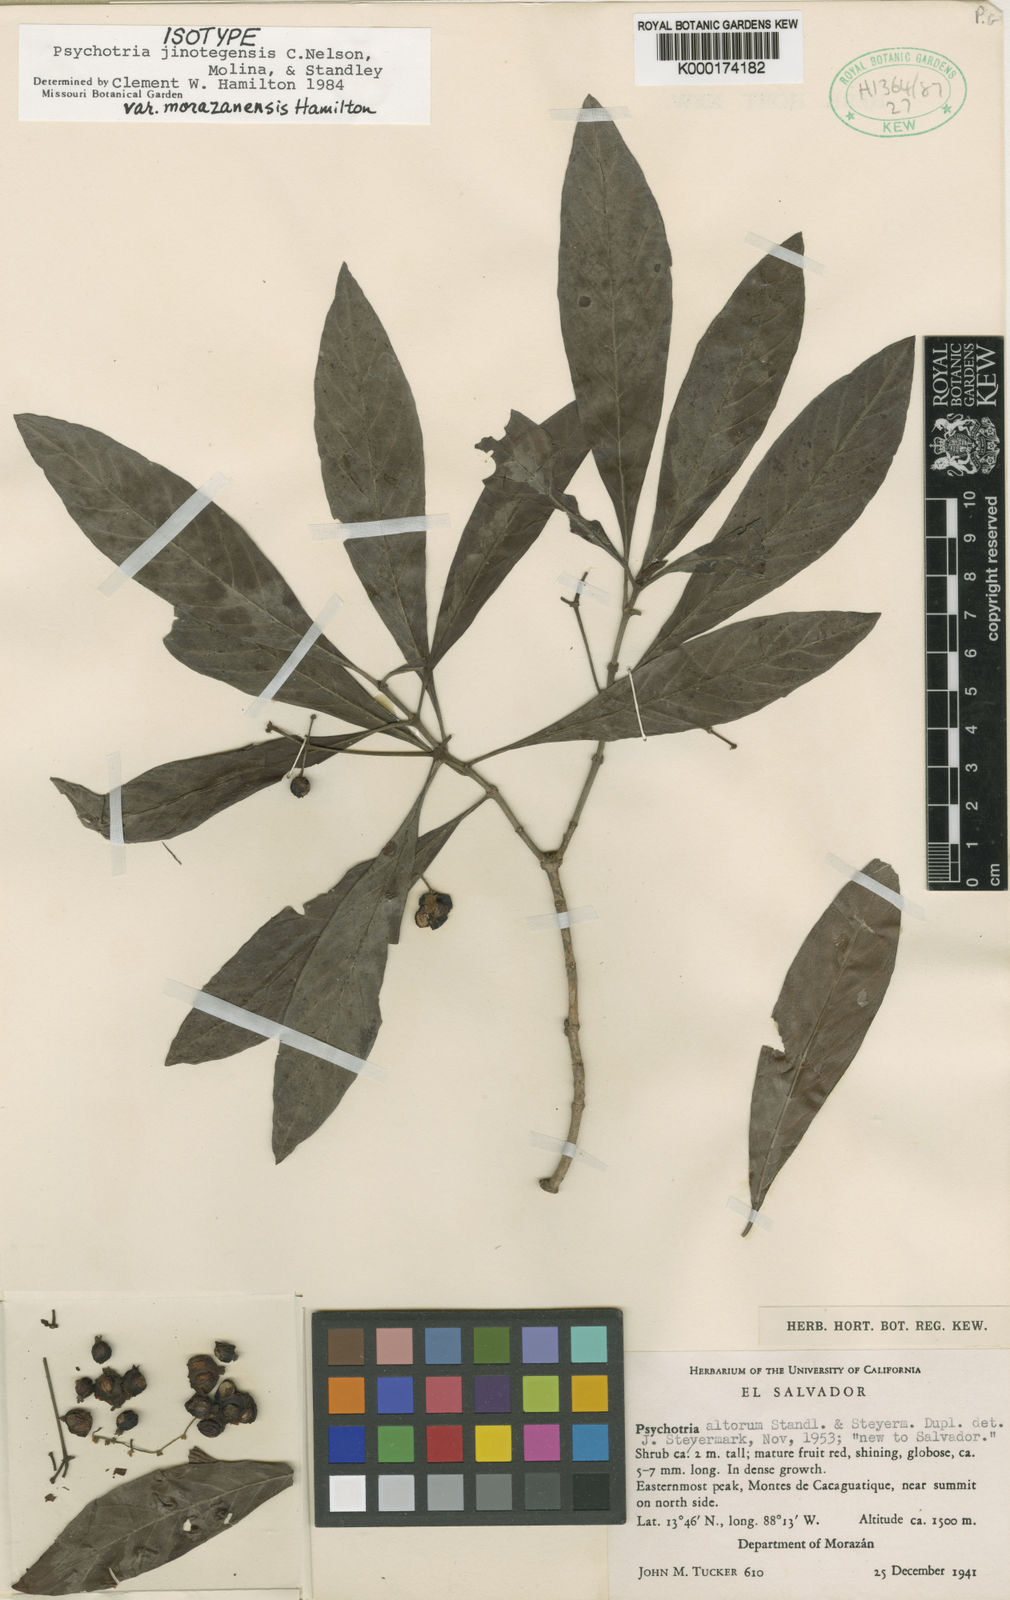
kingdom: Plantae
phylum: Tracheophyta
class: Magnoliopsida
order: Gentianales
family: Rubiaceae
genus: Psychotria
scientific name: Psychotria jinotegensis
